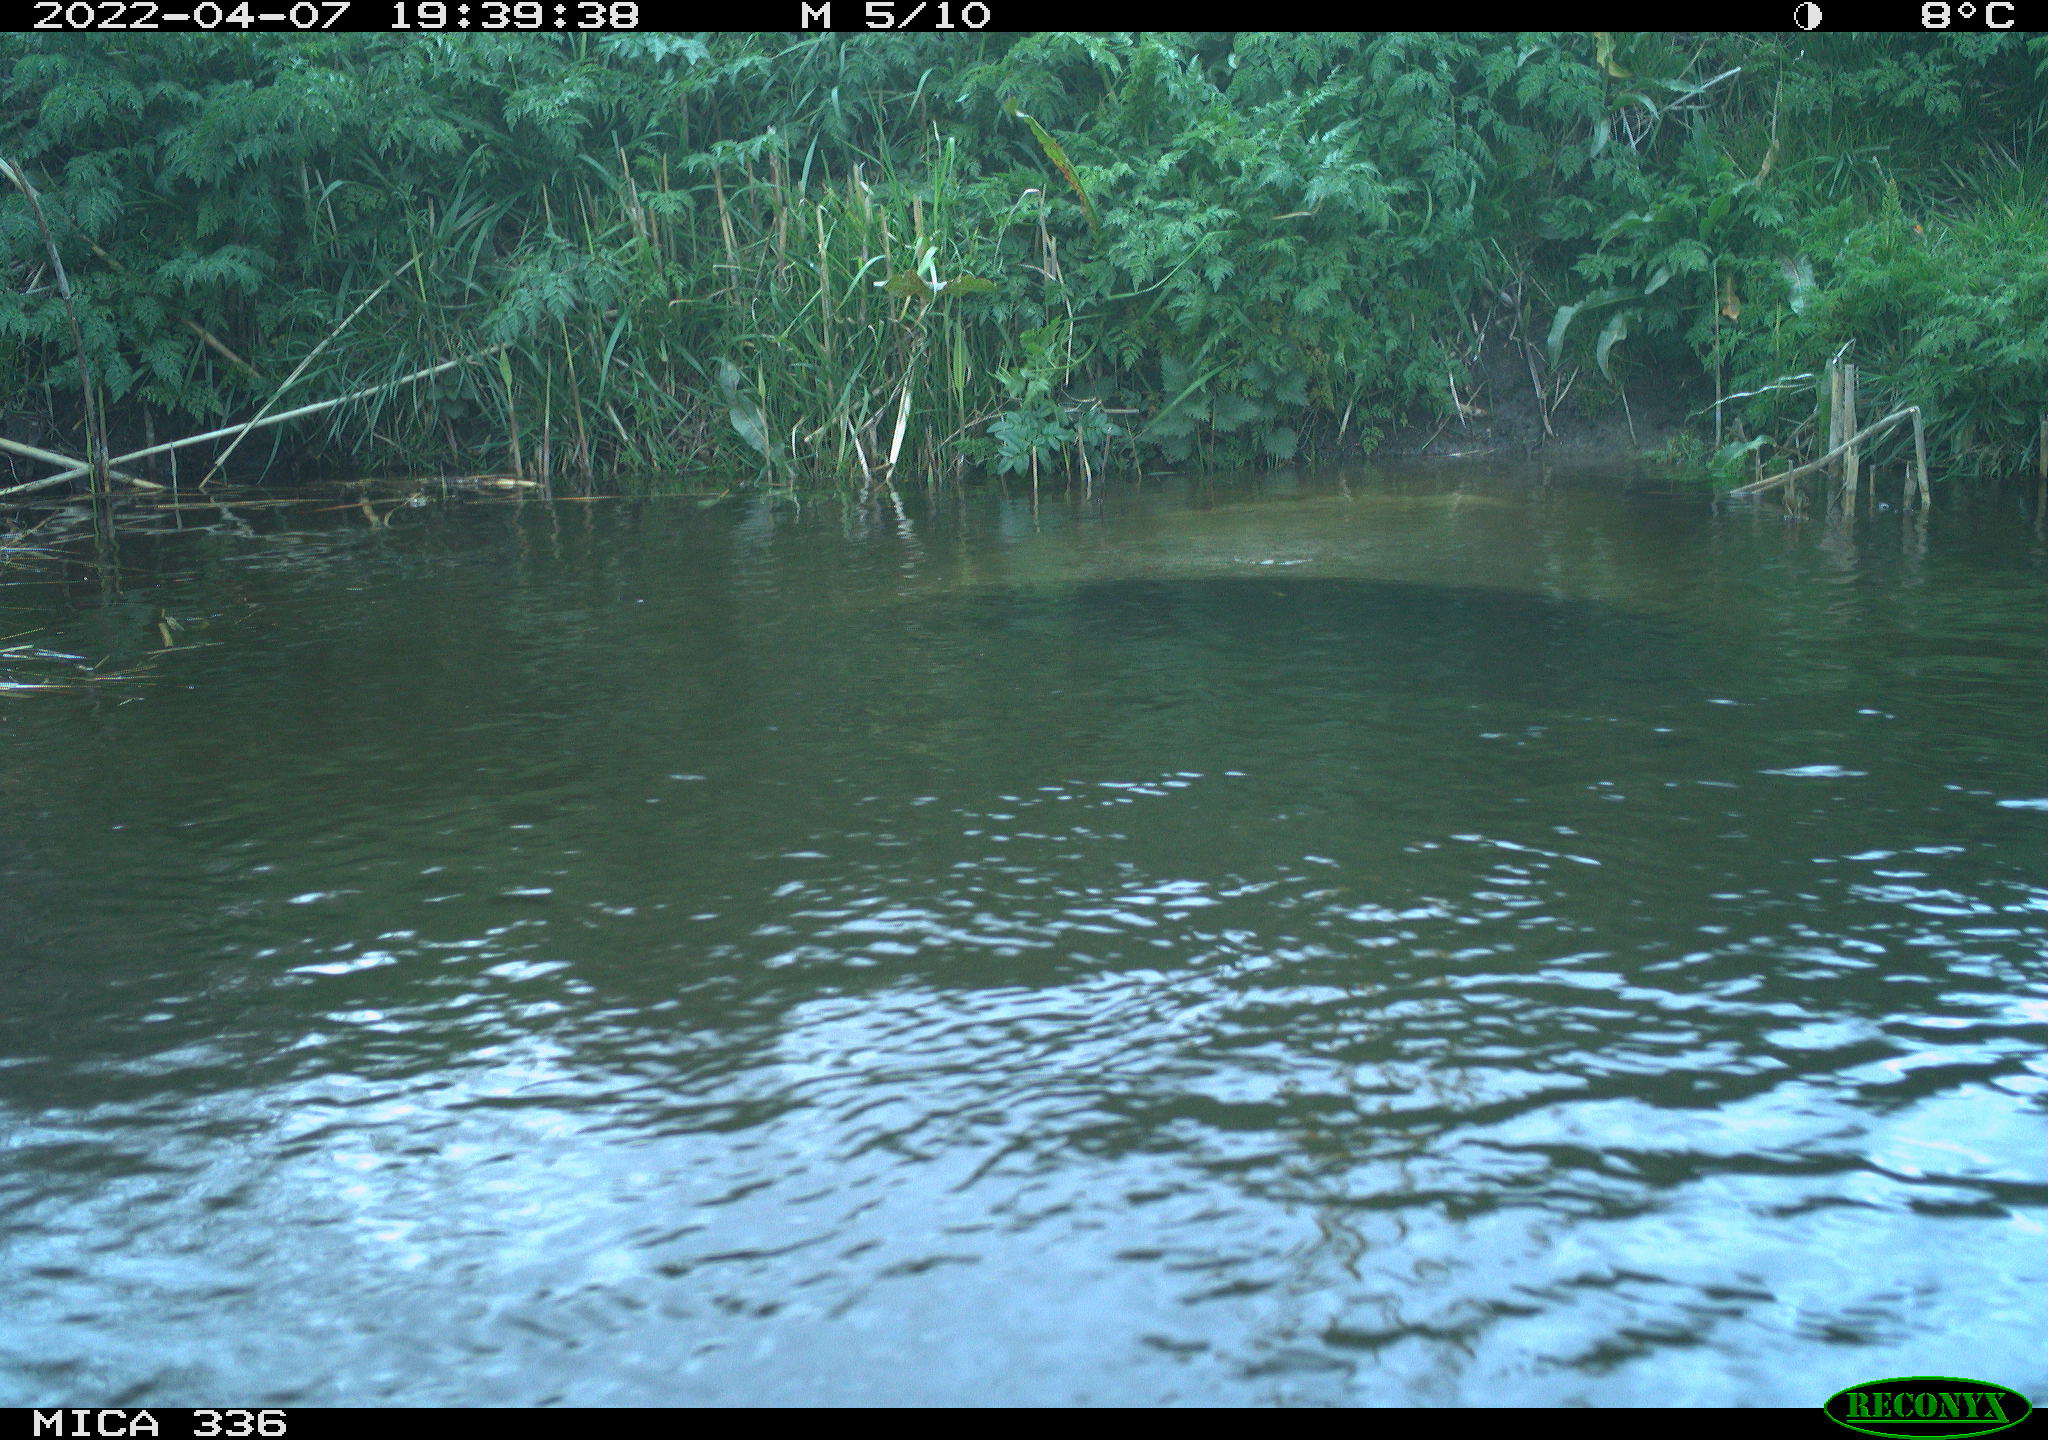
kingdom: Animalia
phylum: Chordata
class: Aves
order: Podicipediformes
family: Podicipedidae
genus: Podiceps
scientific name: Podiceps cristatus
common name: Great crested grebe
